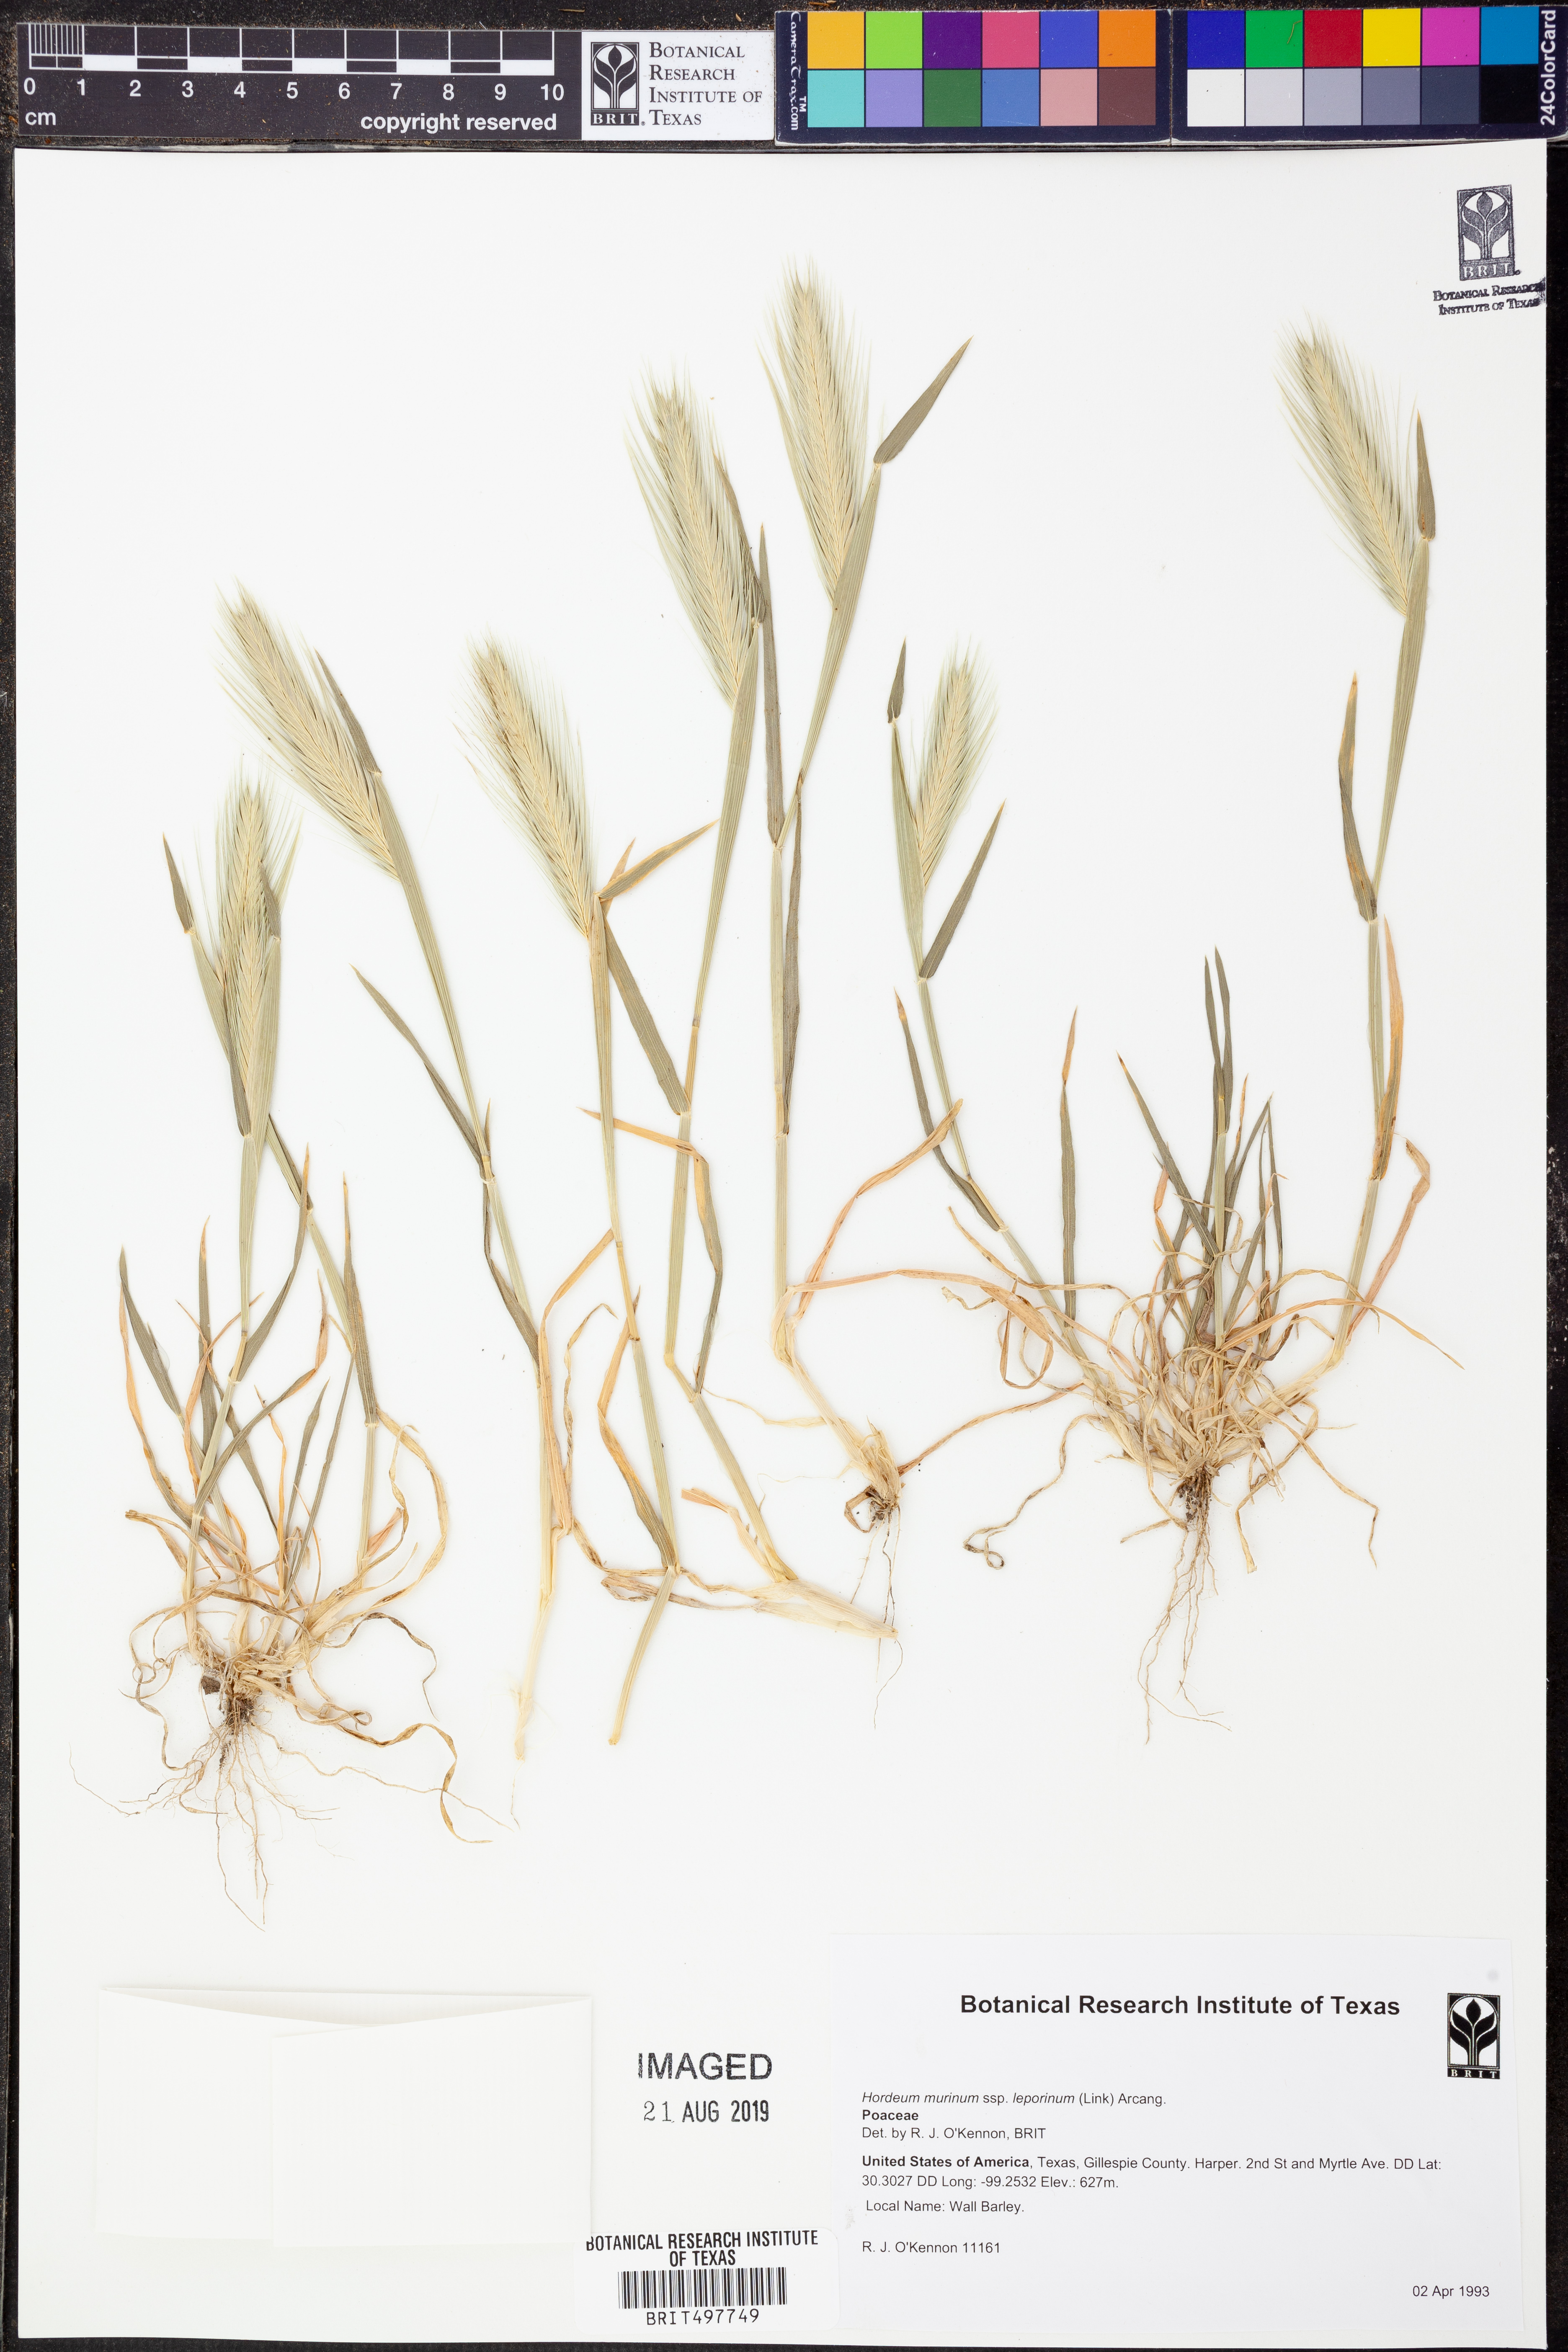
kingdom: Plantae
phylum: Tracheophyta
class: Liliopsida
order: Poales
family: Poaceae
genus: Hordeum
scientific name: Hordeum murinum
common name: Wall barley
